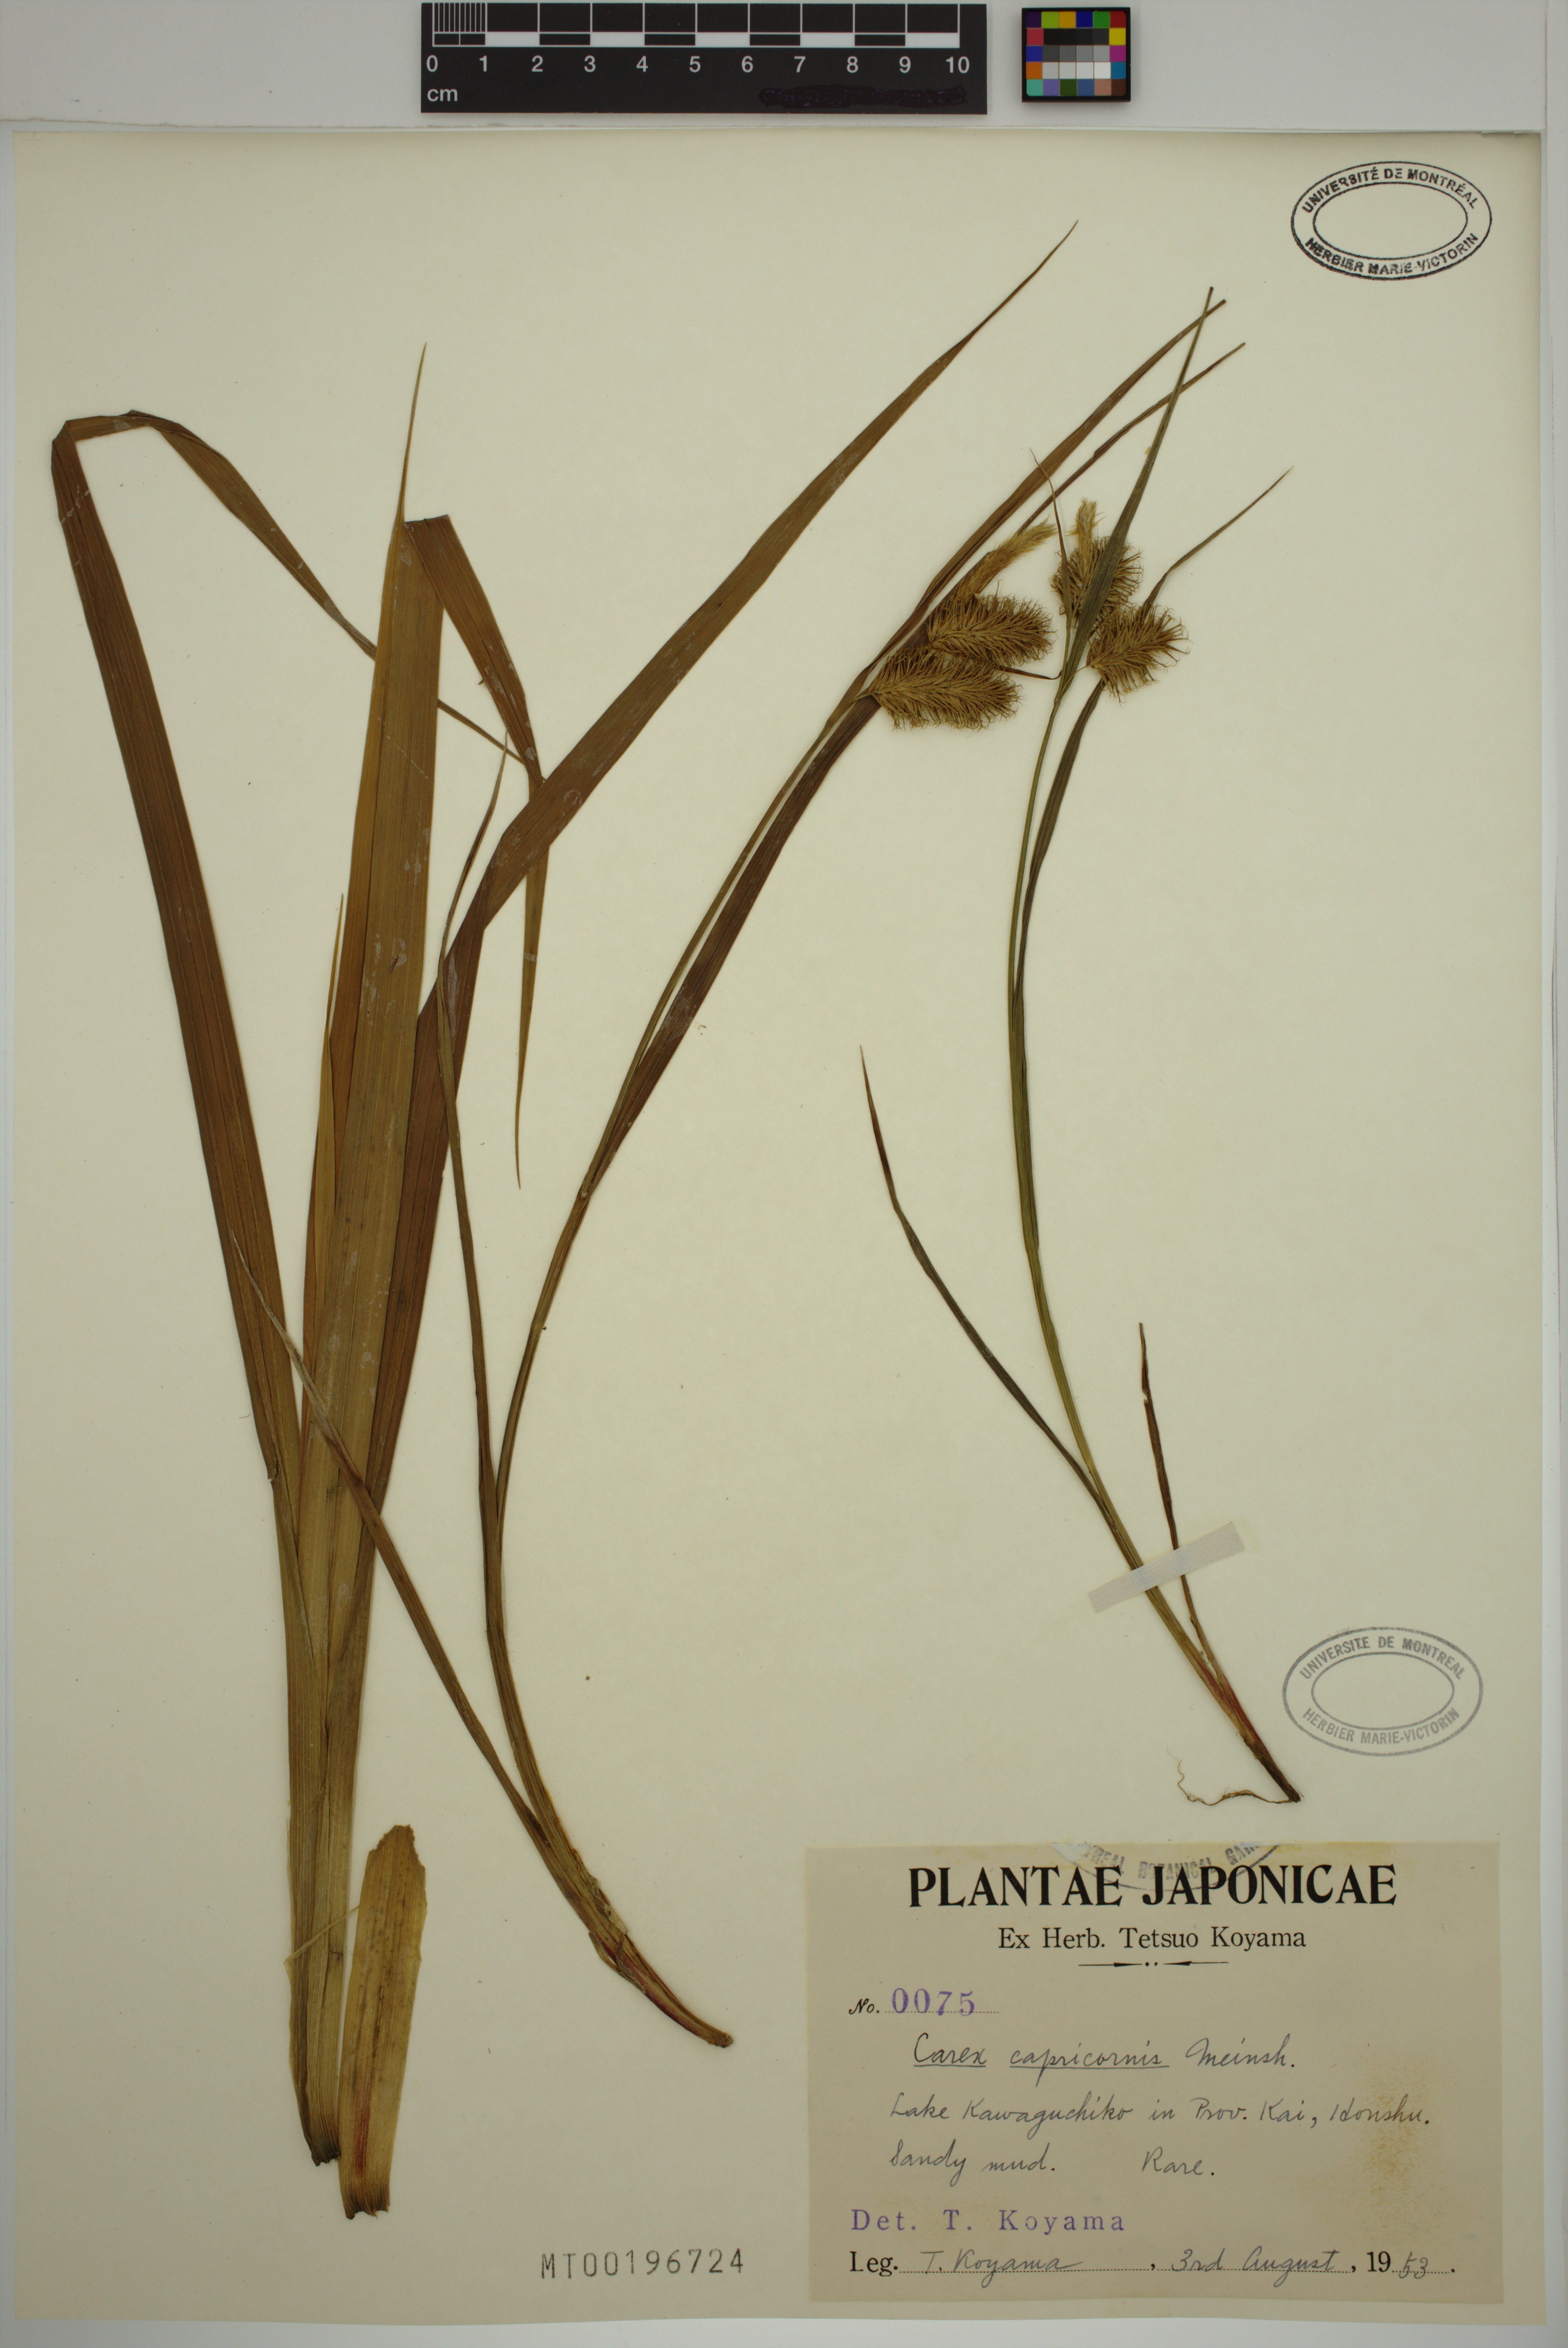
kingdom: Plantae
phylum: Tracheophyta
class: Liliopsida
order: Poales
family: Cyperaceae
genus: Carex
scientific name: Carex capricornis
